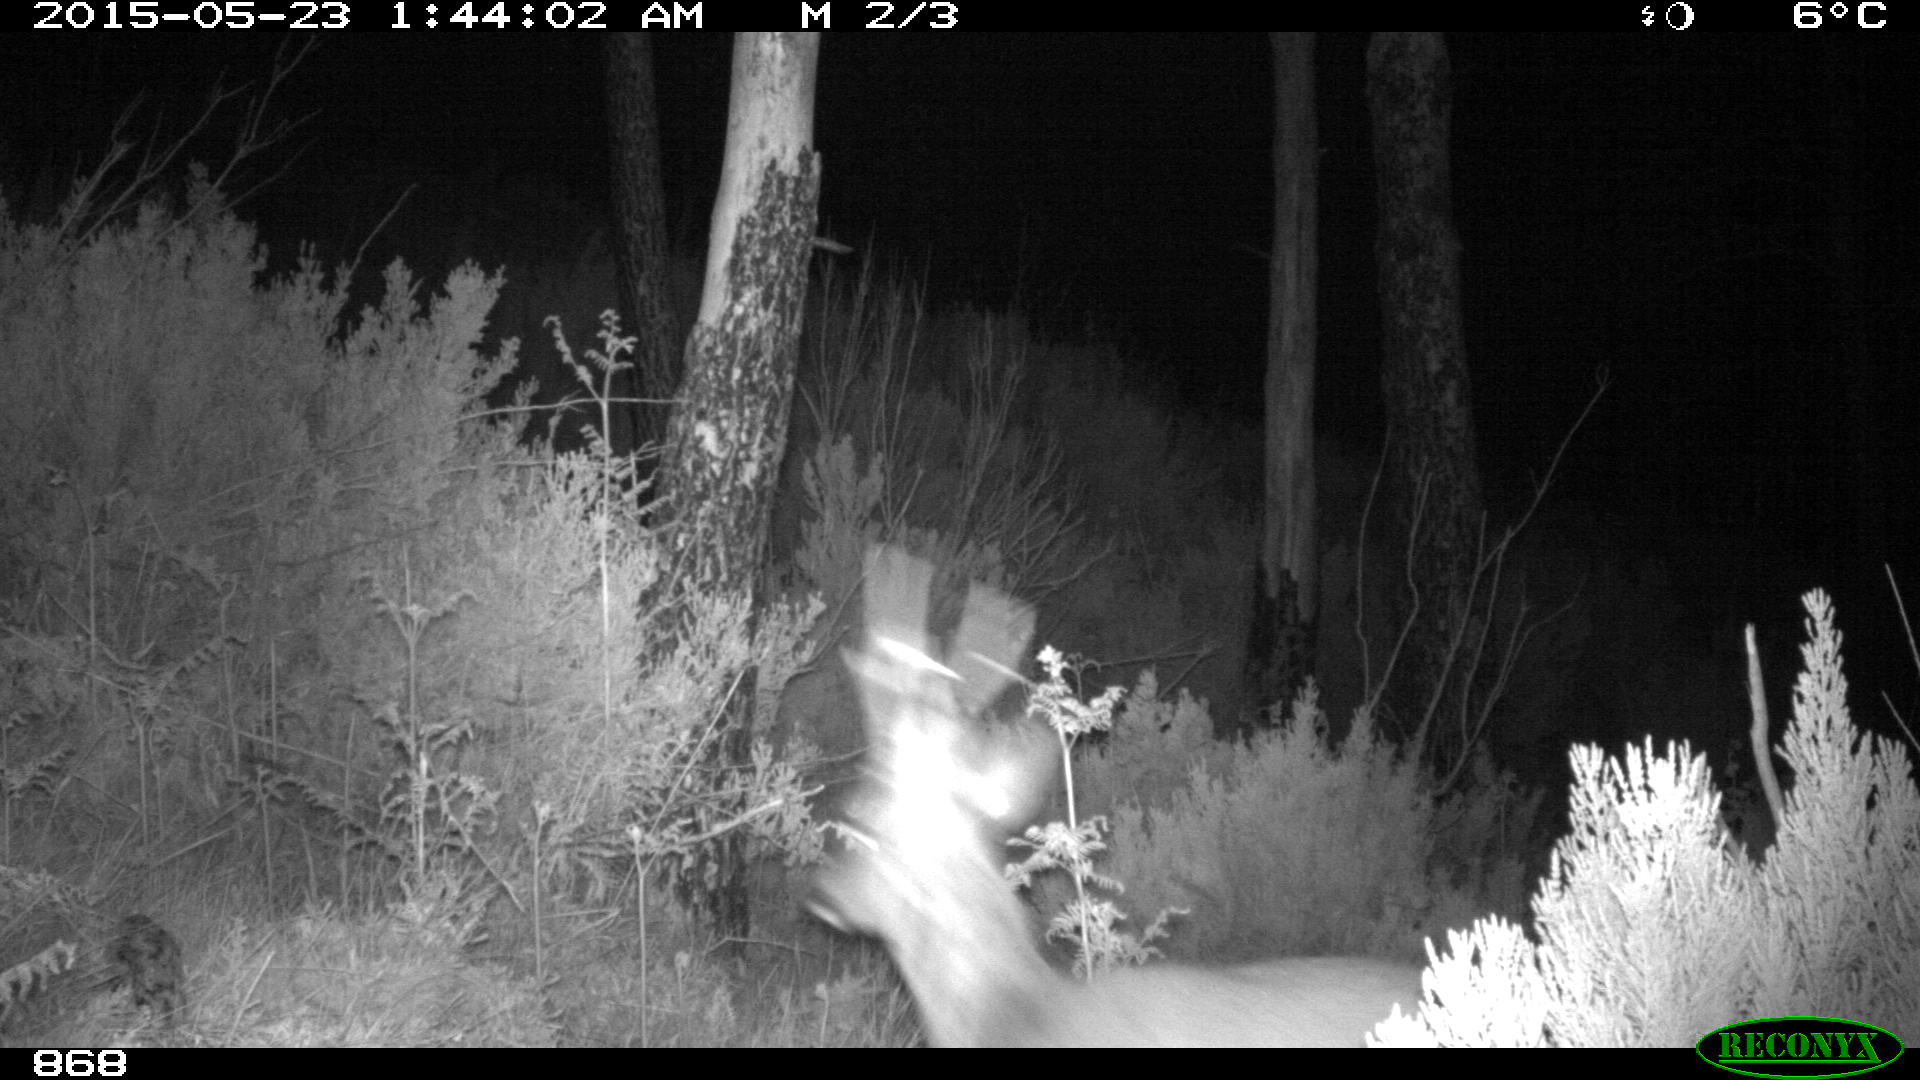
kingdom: Animalia
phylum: Chordata
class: Mammalia
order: Artiodactyla
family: Cervidae
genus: Capreolus
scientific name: Capreolus capreolus
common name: Western roe deer
